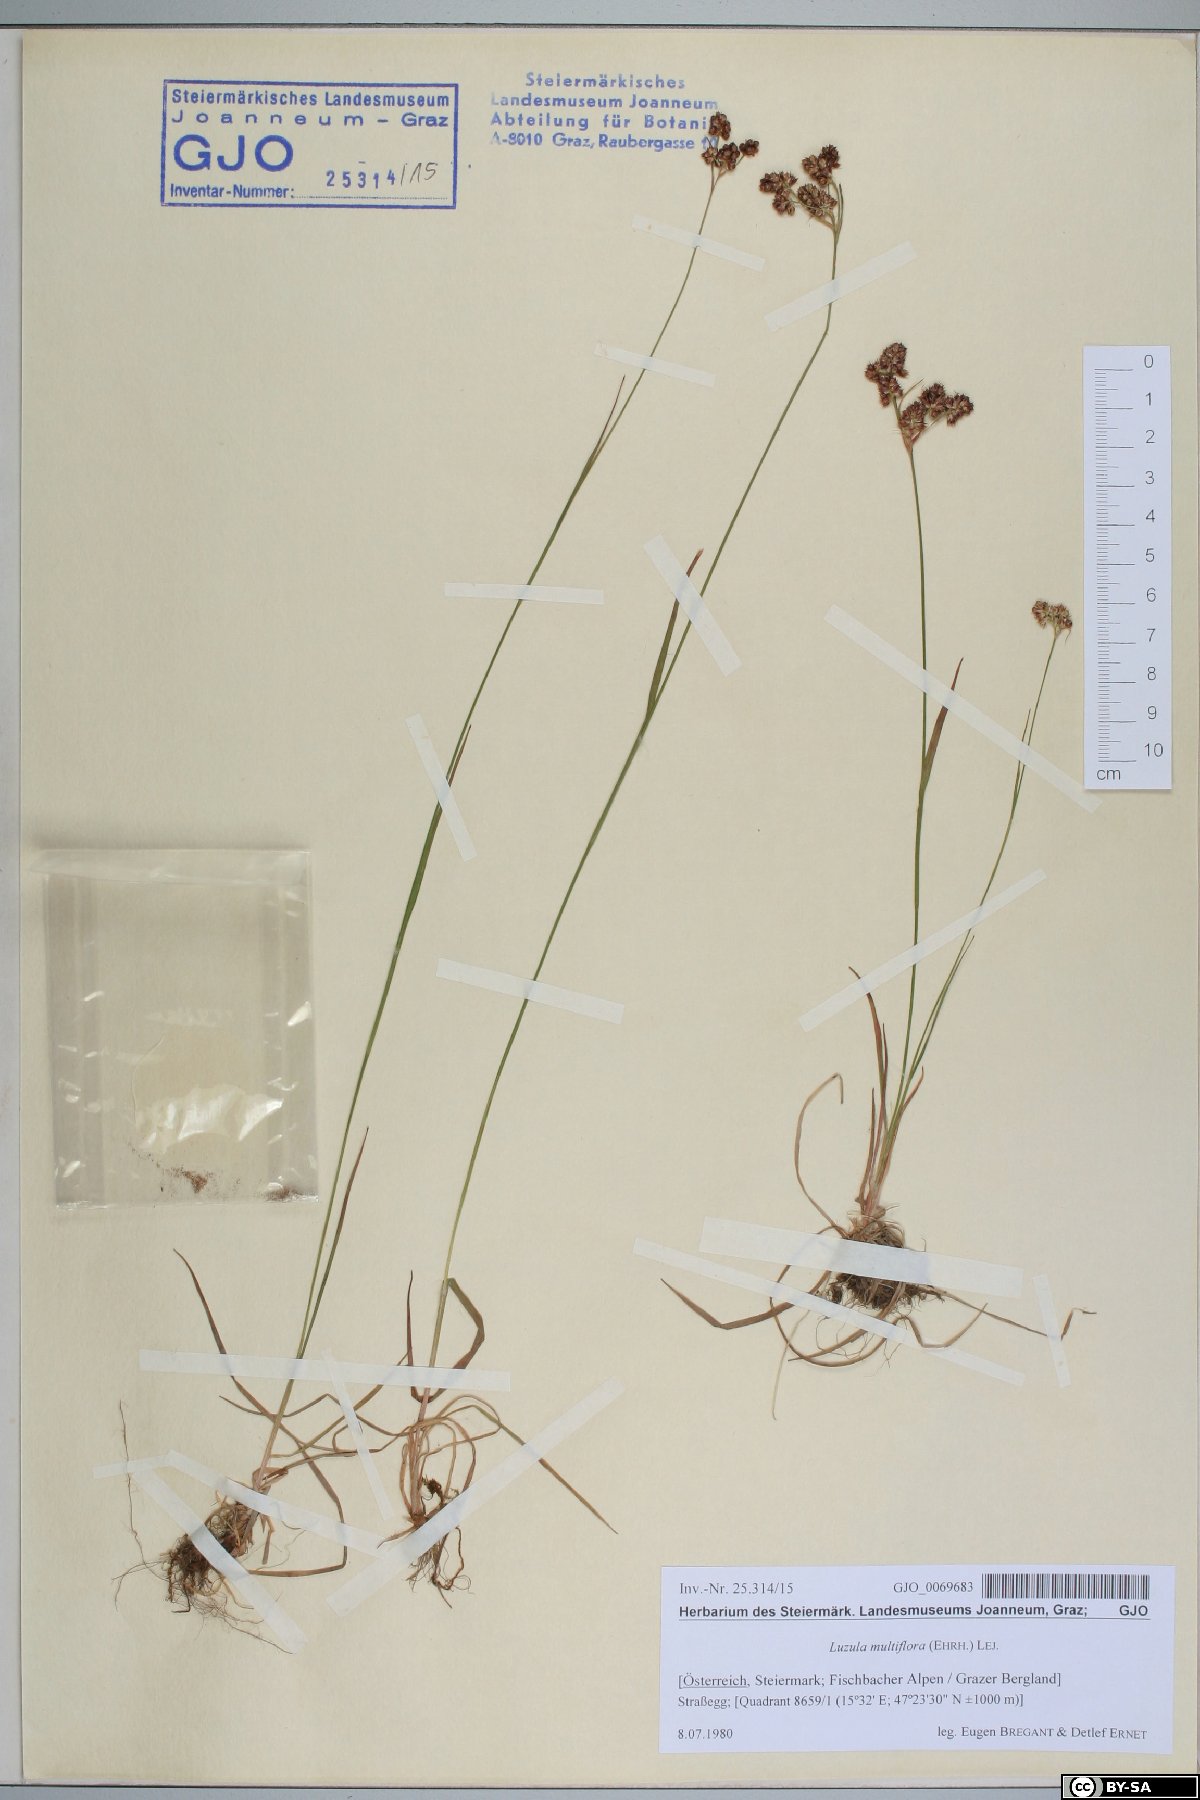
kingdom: Plantae
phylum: Tracheophyta
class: Liliopsida
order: Poales
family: Juncaceae
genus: Luzula
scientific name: Luzula multiflora
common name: Heath wood-rush
